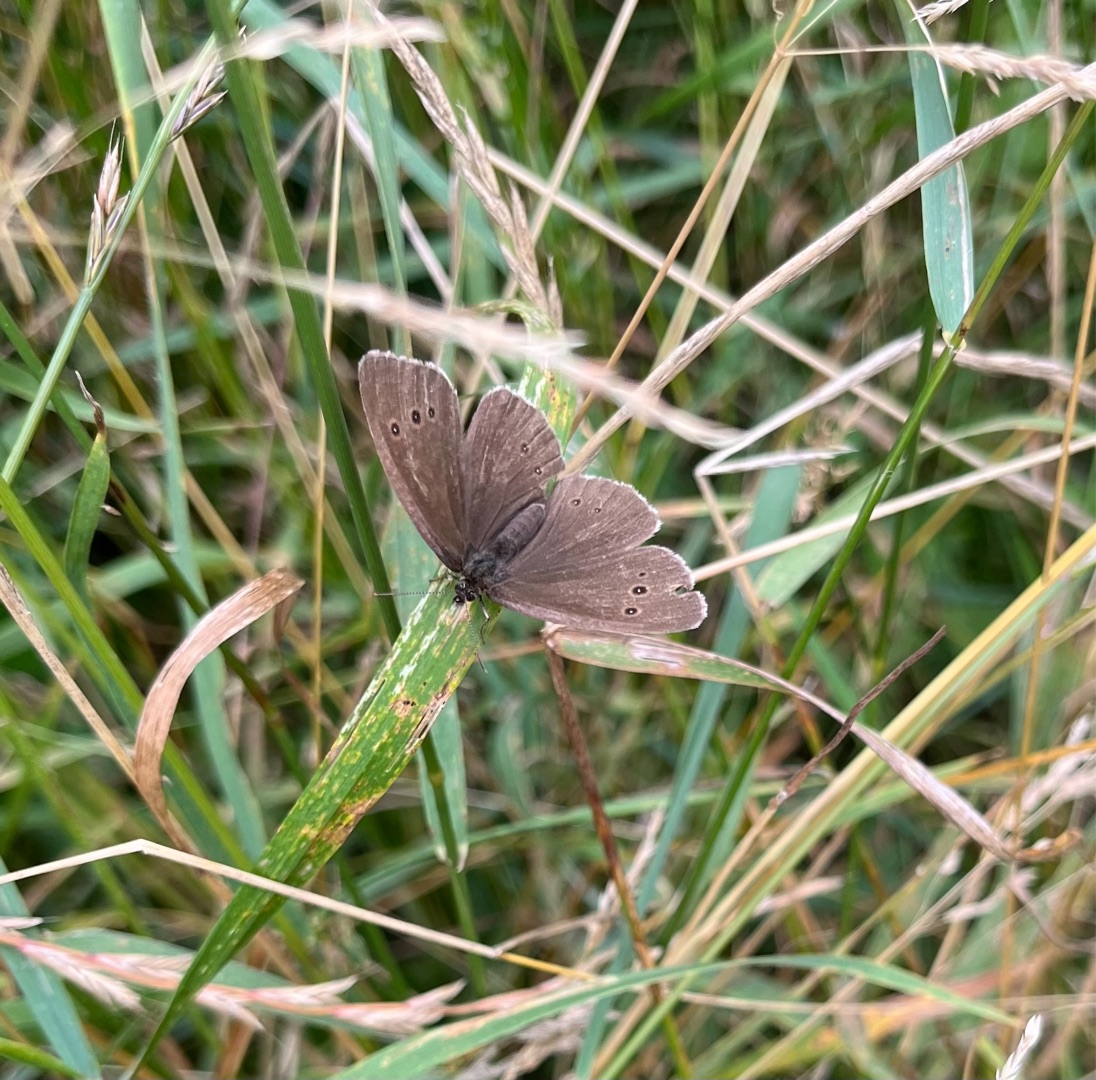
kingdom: Animalia
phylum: Arthropoda
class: Insecta
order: Lepidoptera
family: Nymphalidae
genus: Aphantopus
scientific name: Aphantopus hyperantus
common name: Engrandøje
